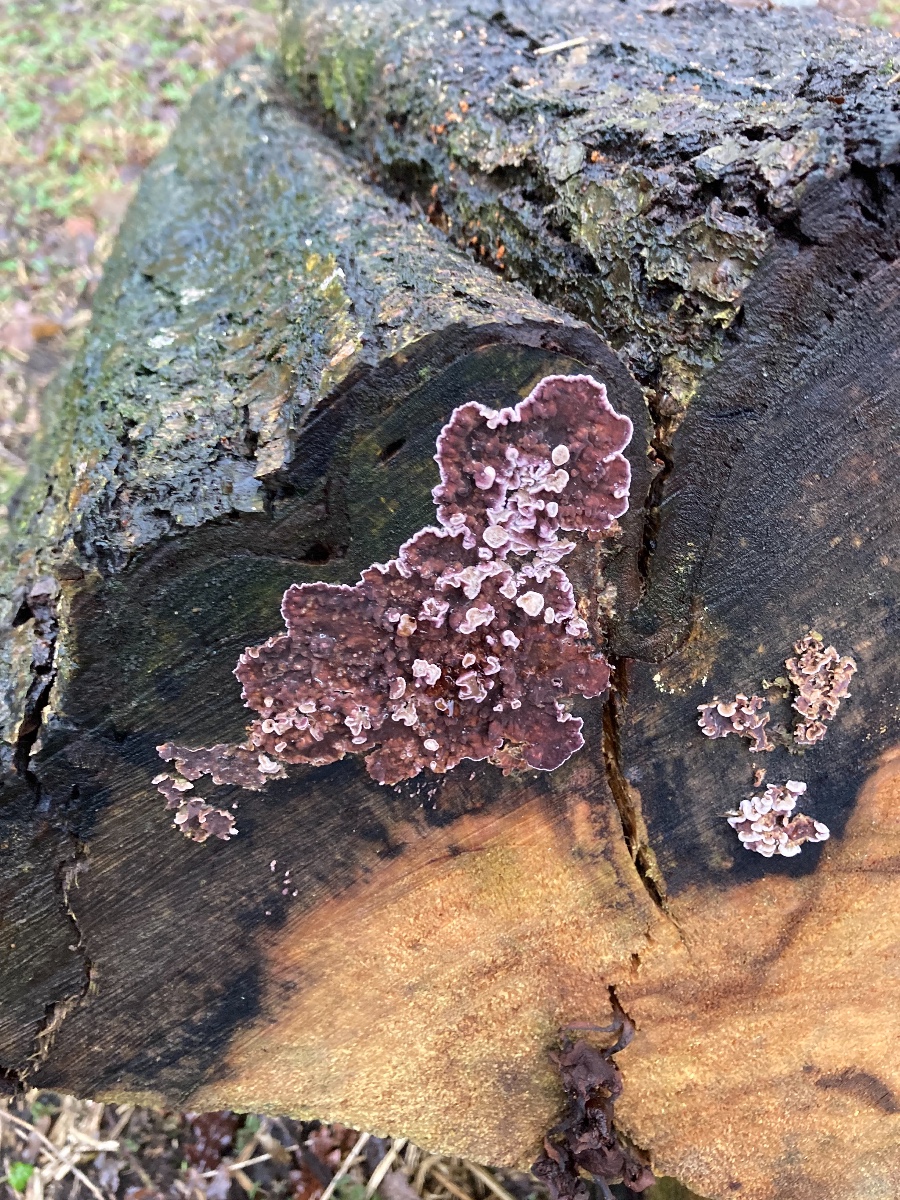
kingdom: Fungi
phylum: Basidiomycota
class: Agaricomycetes
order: Agaricales
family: Cyphellaceae
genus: Chondrostereum
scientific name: Chondrostereum purpureum
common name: purpurlædersvamp
